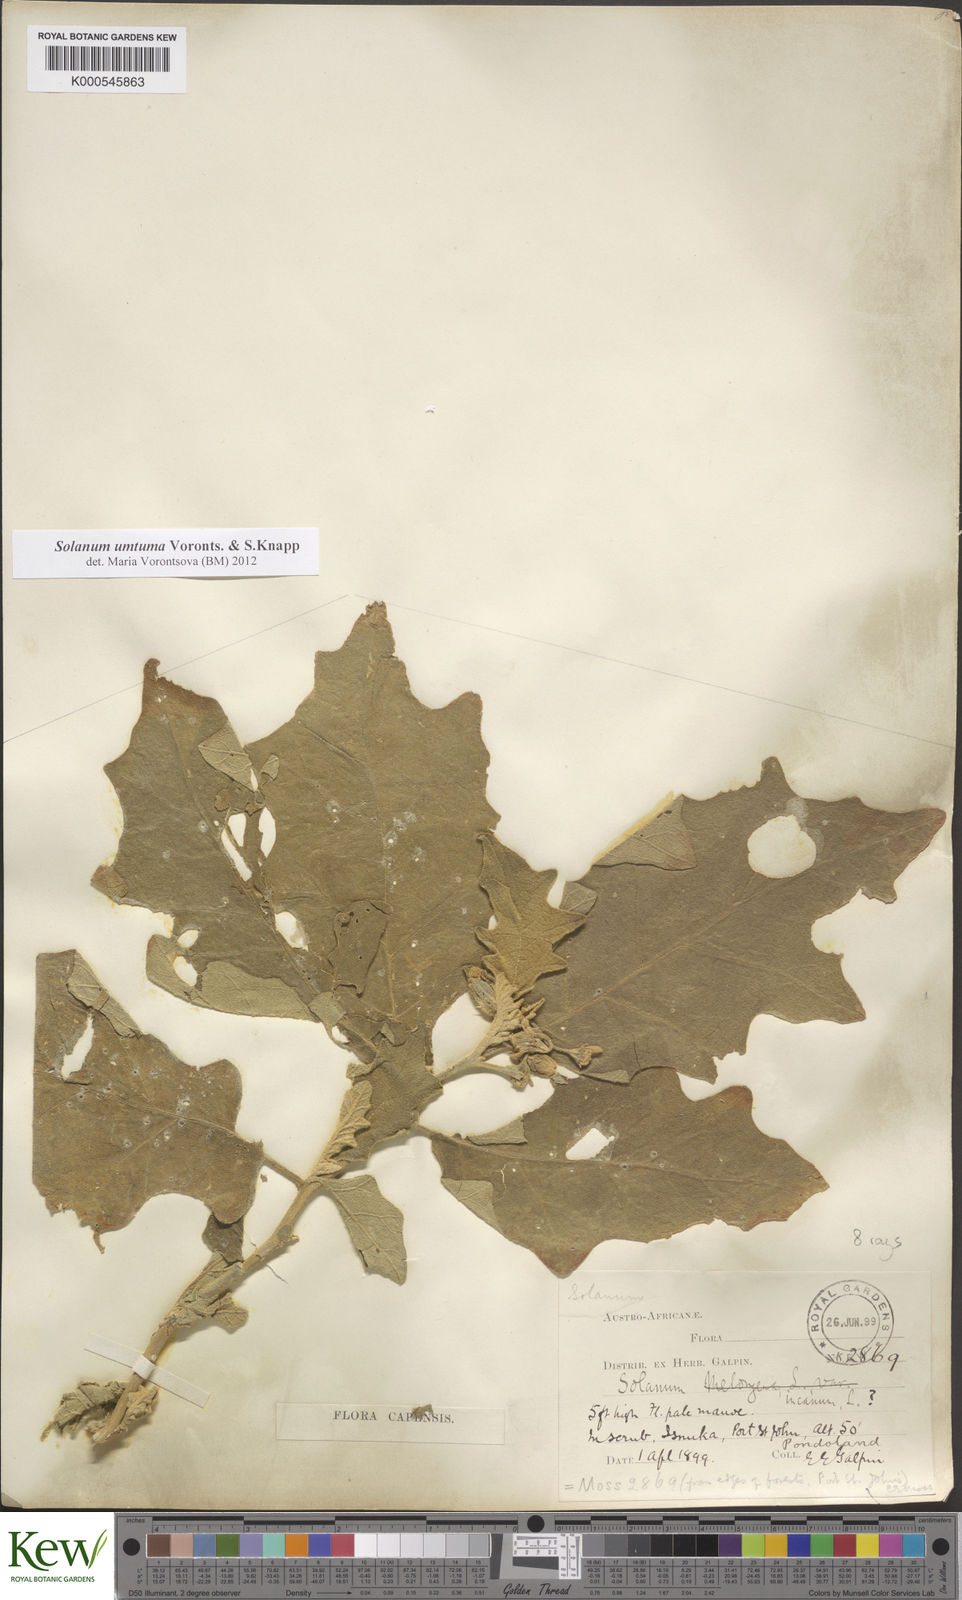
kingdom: Plantae
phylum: Tracheophyta
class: Magnoliopsida
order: Solanales
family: Solanaceae
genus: Solanum
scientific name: Solanum umtuma
